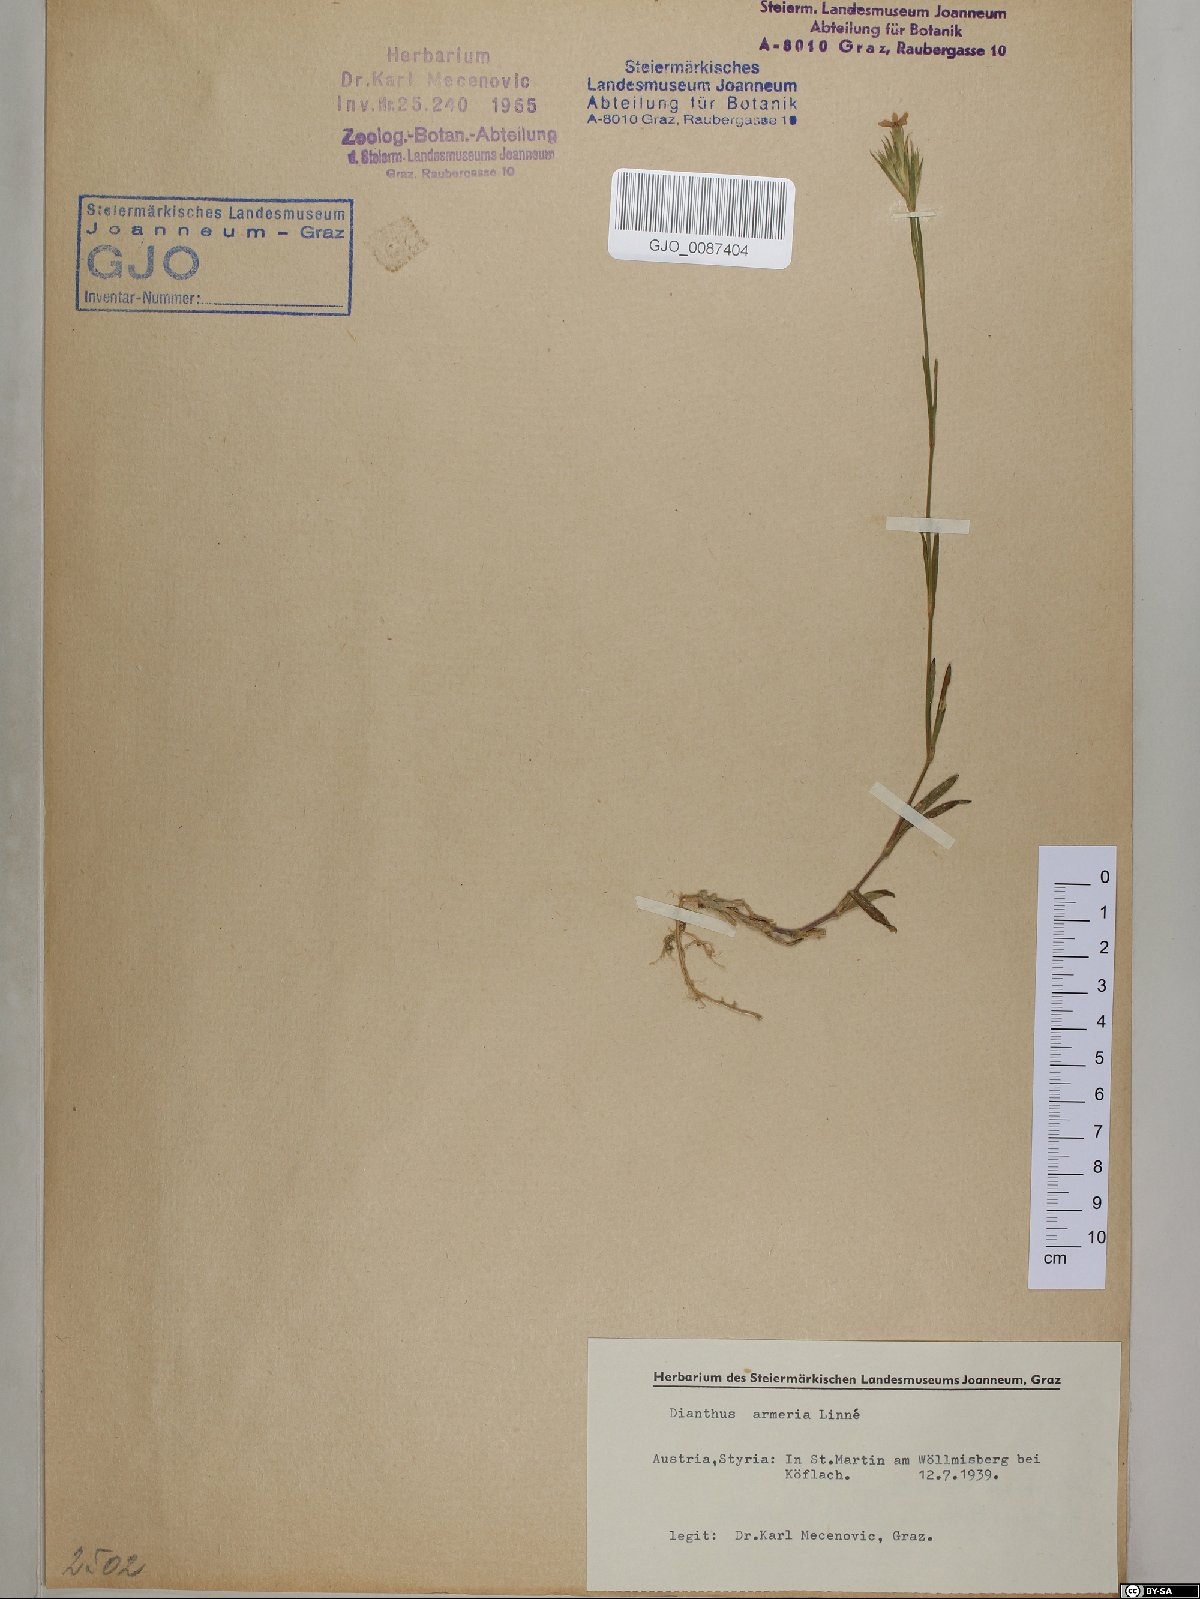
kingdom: Plantae
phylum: Tracheophyta
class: Magnoliopsida
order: Caryophyllales
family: Caryophyllaceae
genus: Dianthus
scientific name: Dianthus armeria
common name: Deptford pink
